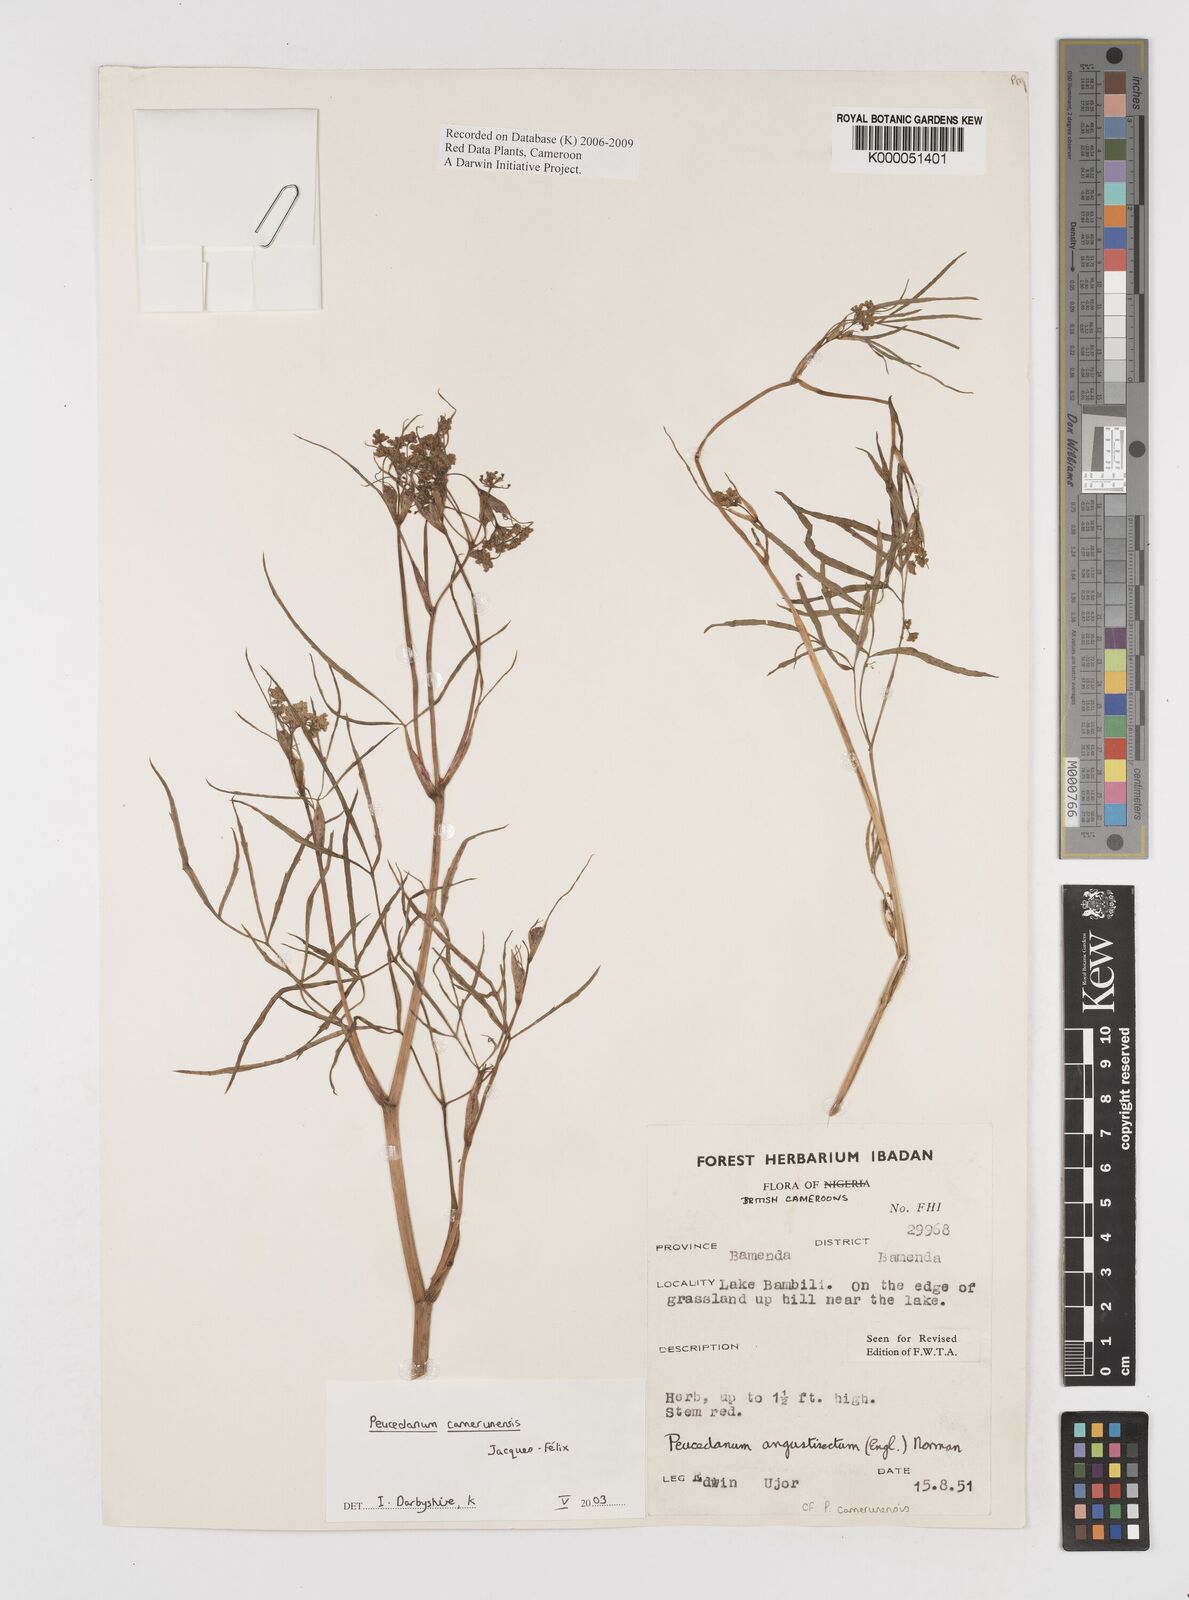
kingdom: Plantae
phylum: Tracheophyta
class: Magnoliopsida
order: Apiales
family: Apiaceae
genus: Lefebvrea
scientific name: Lefebvrea
